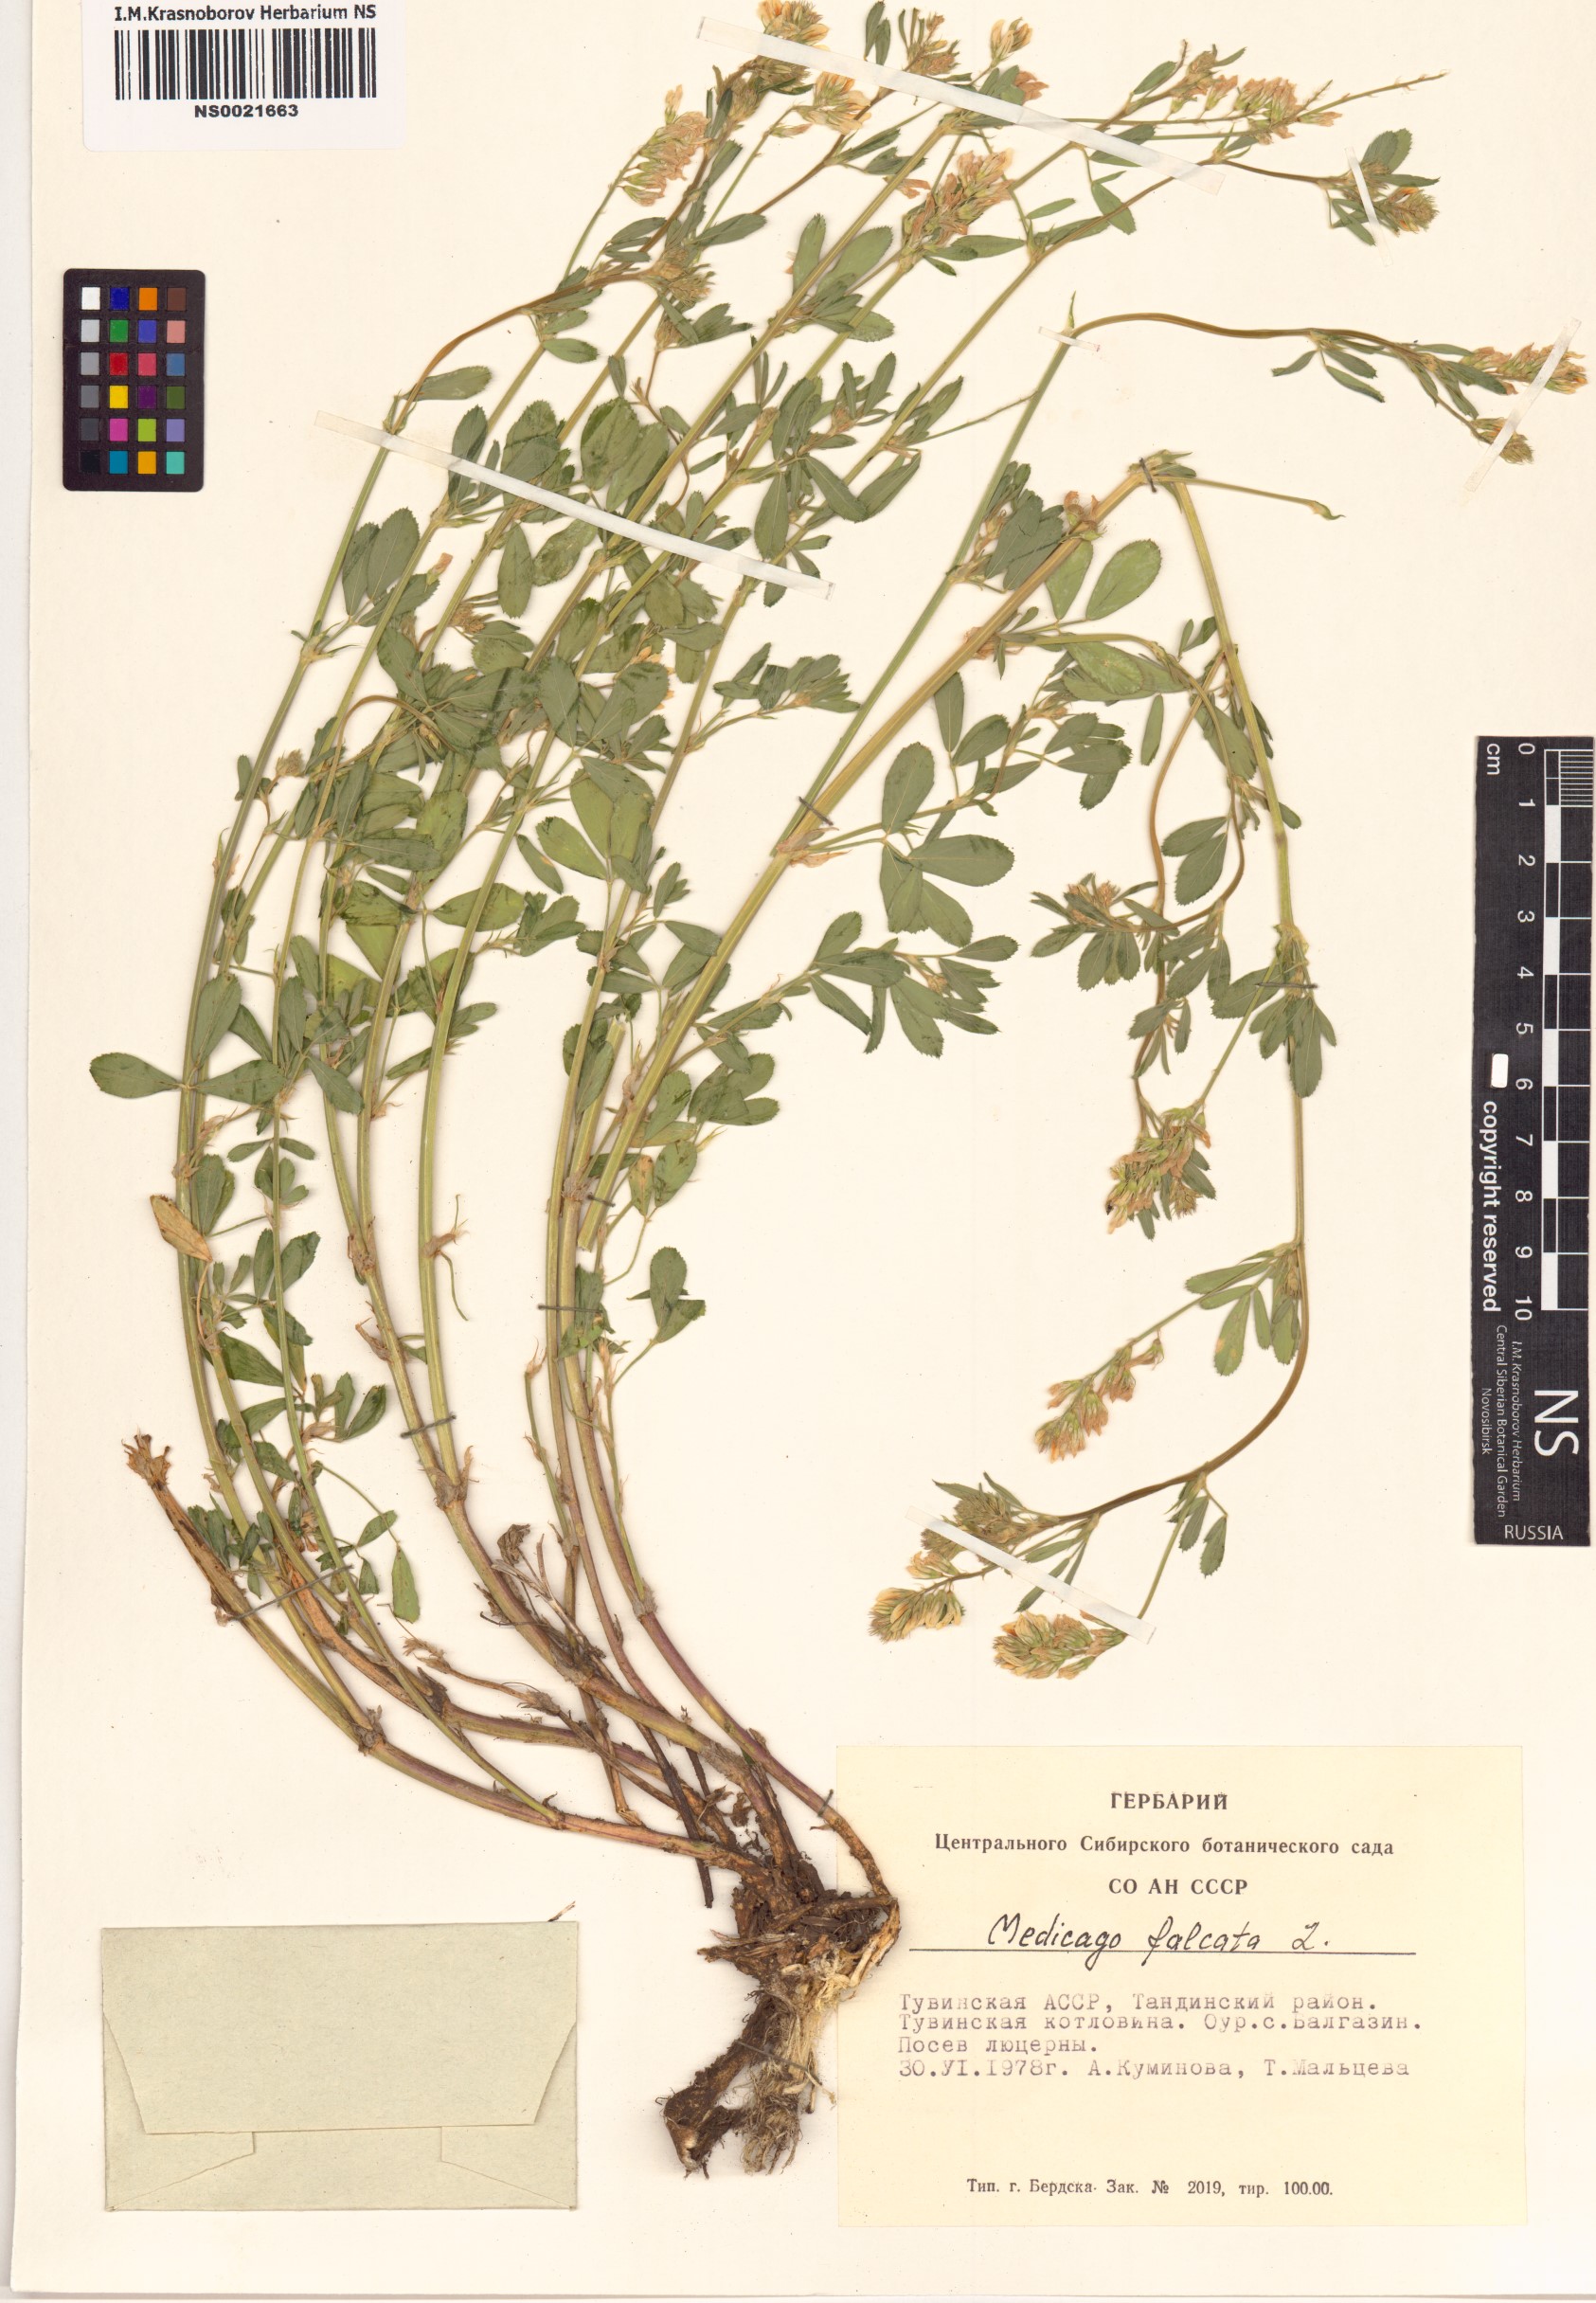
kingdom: Plantae
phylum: Tracheophyta
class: Magnoliopsida
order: Fabales
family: Fabaceae
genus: Medicago
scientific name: Medicago falcata
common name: Sickle medick
